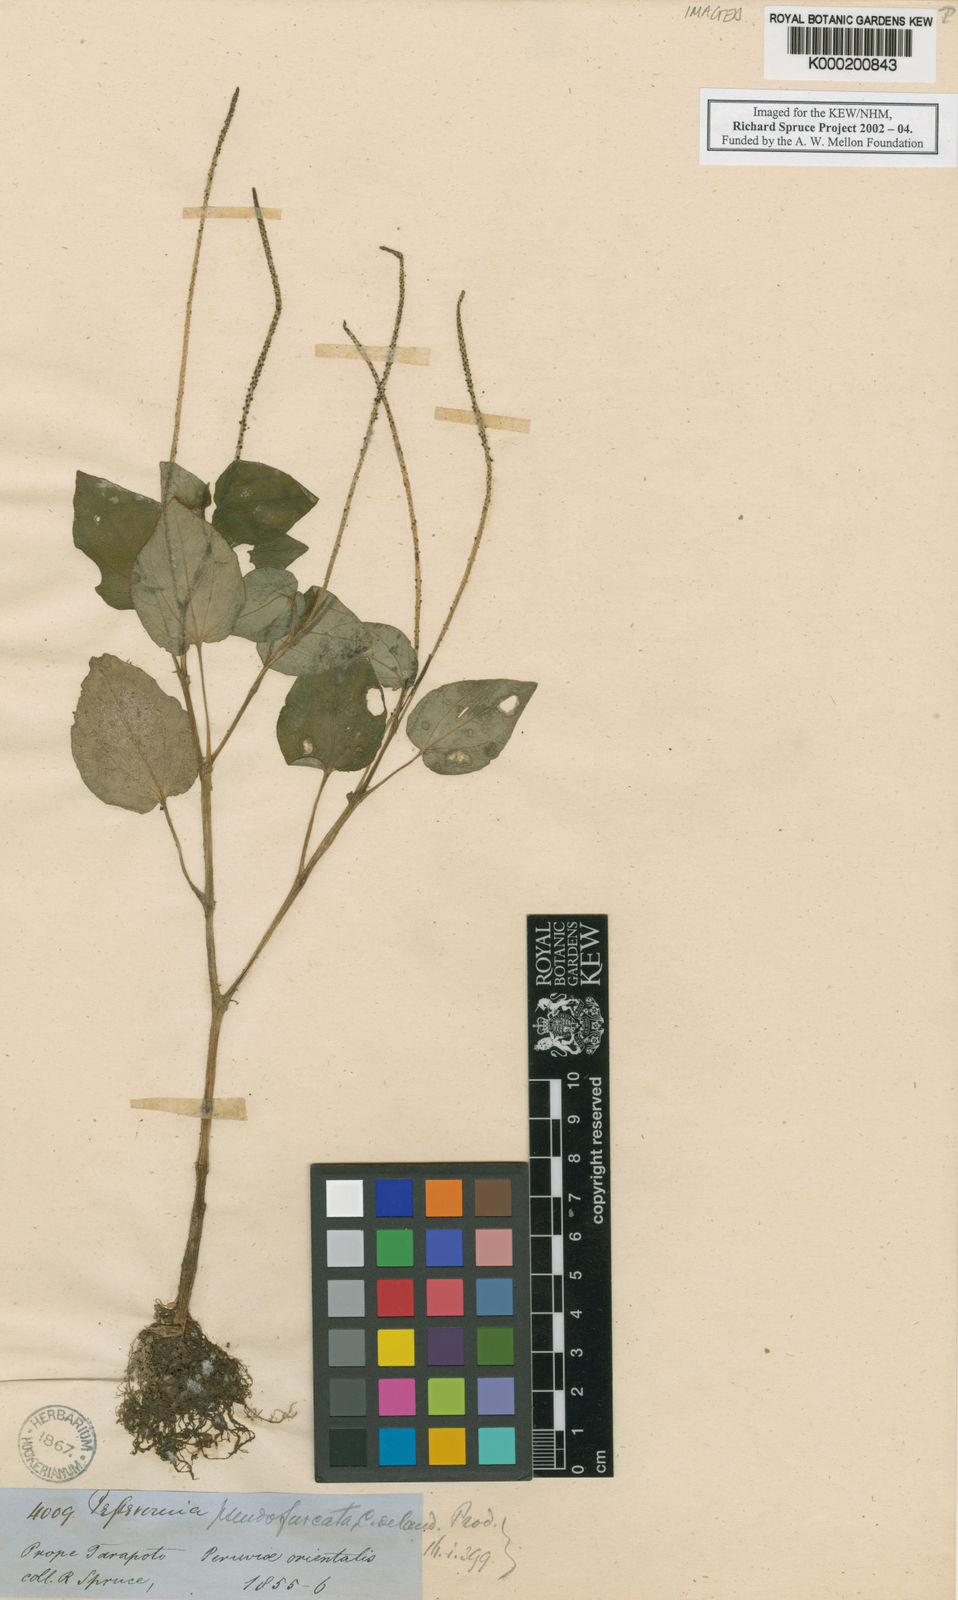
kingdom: Plantae
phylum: Tracheophyta
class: Magnoliopsida
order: Piperales
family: Piperaceae
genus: Peperomia
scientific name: Peperomia pseudofurcata
